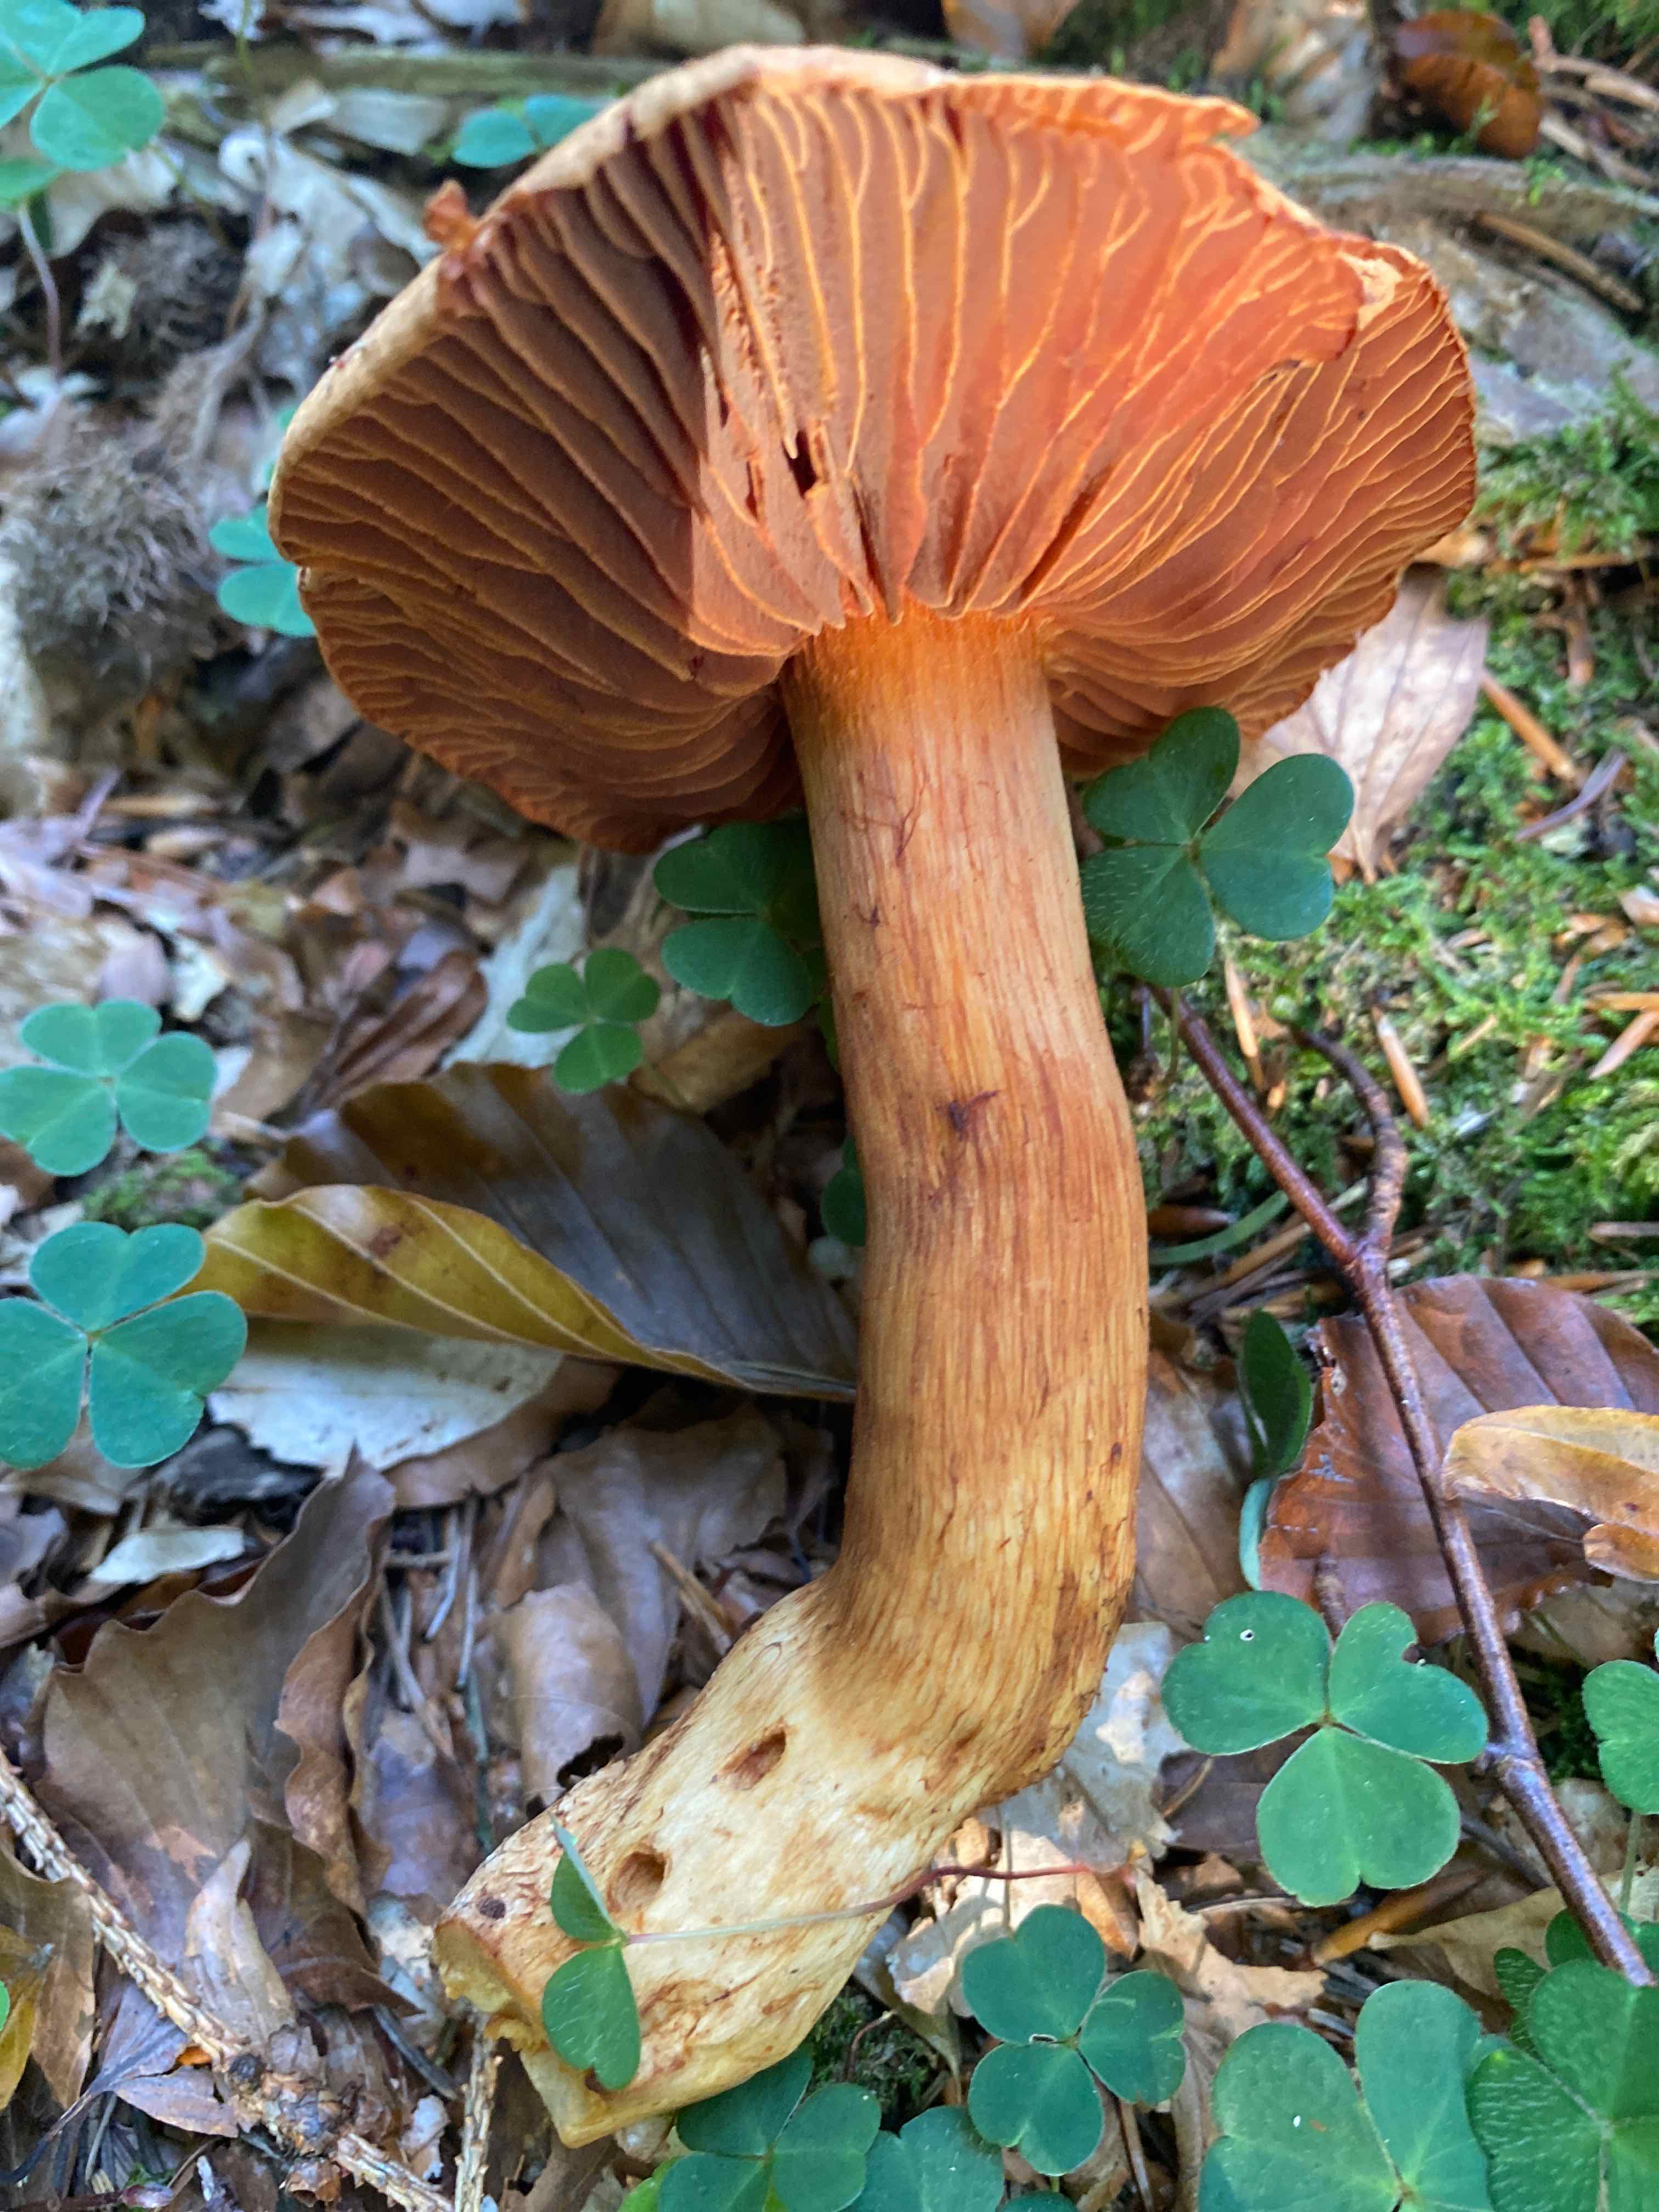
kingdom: Fungi
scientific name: Fungi
